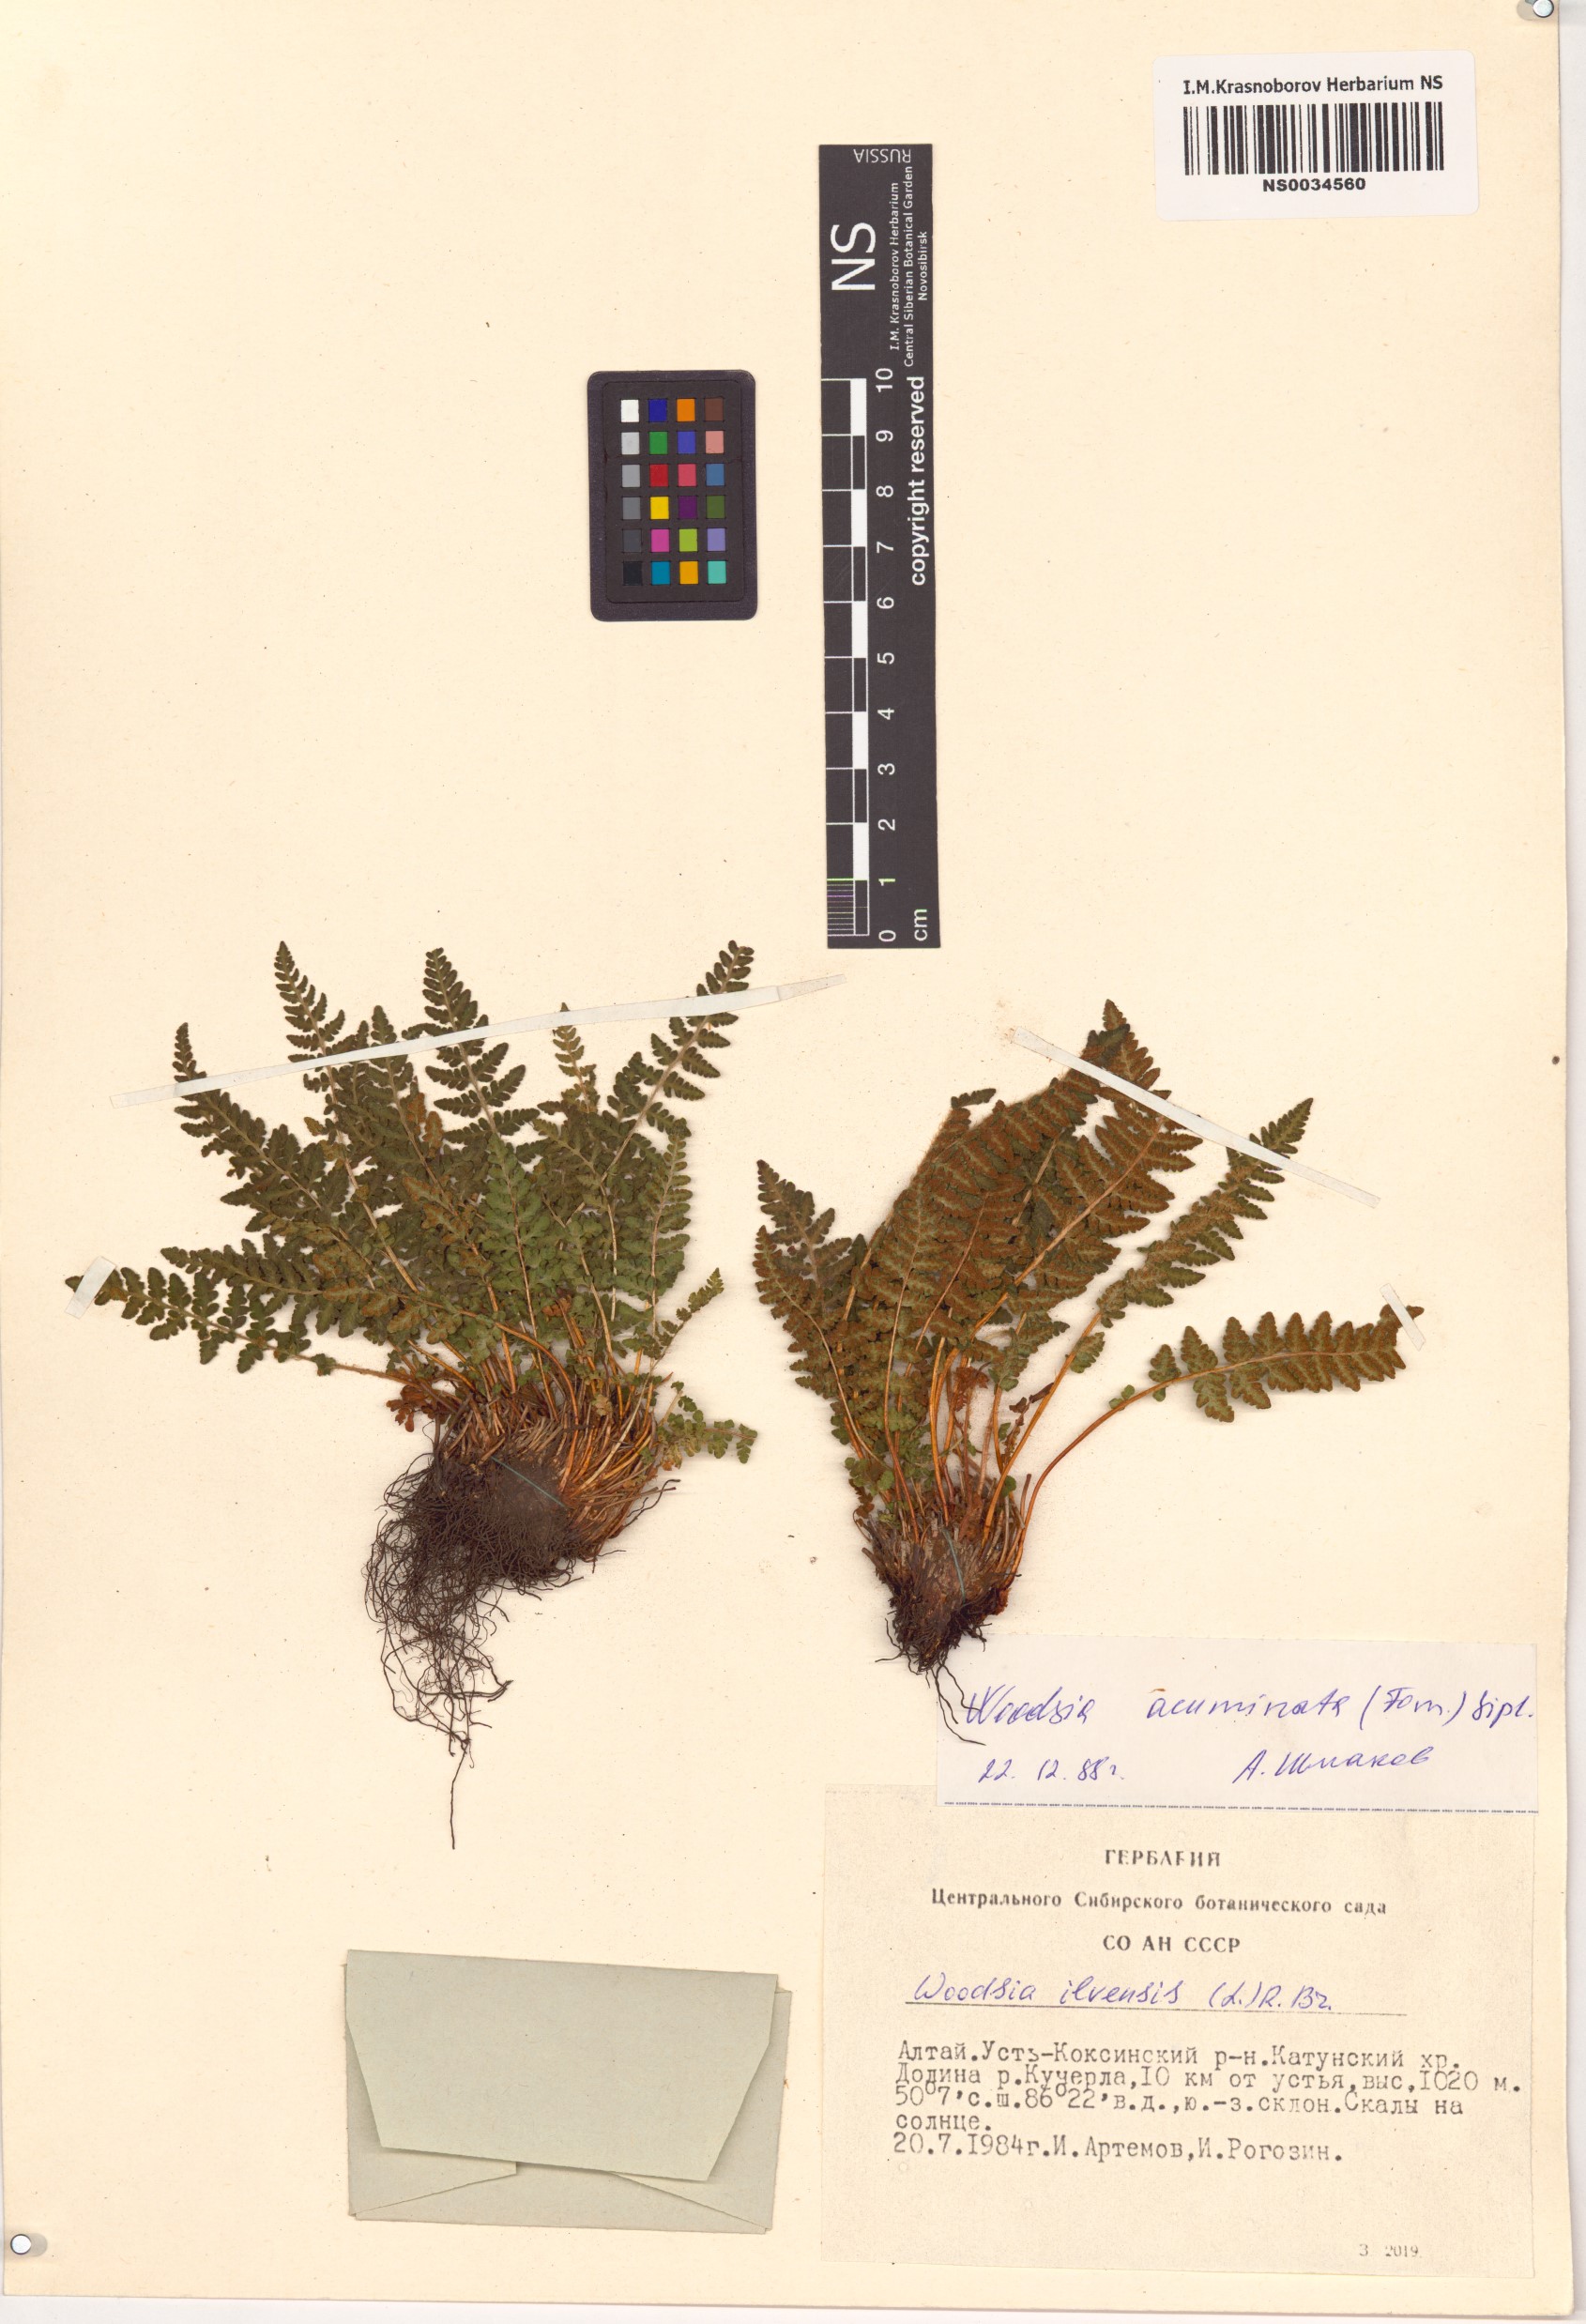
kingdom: Plantae
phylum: Tracheophyta
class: Polypodiopsida
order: Polypodiales
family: Woodsiaceae
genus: Woodsia
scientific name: Woodsia ilvensis
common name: Fragrant woodsia
